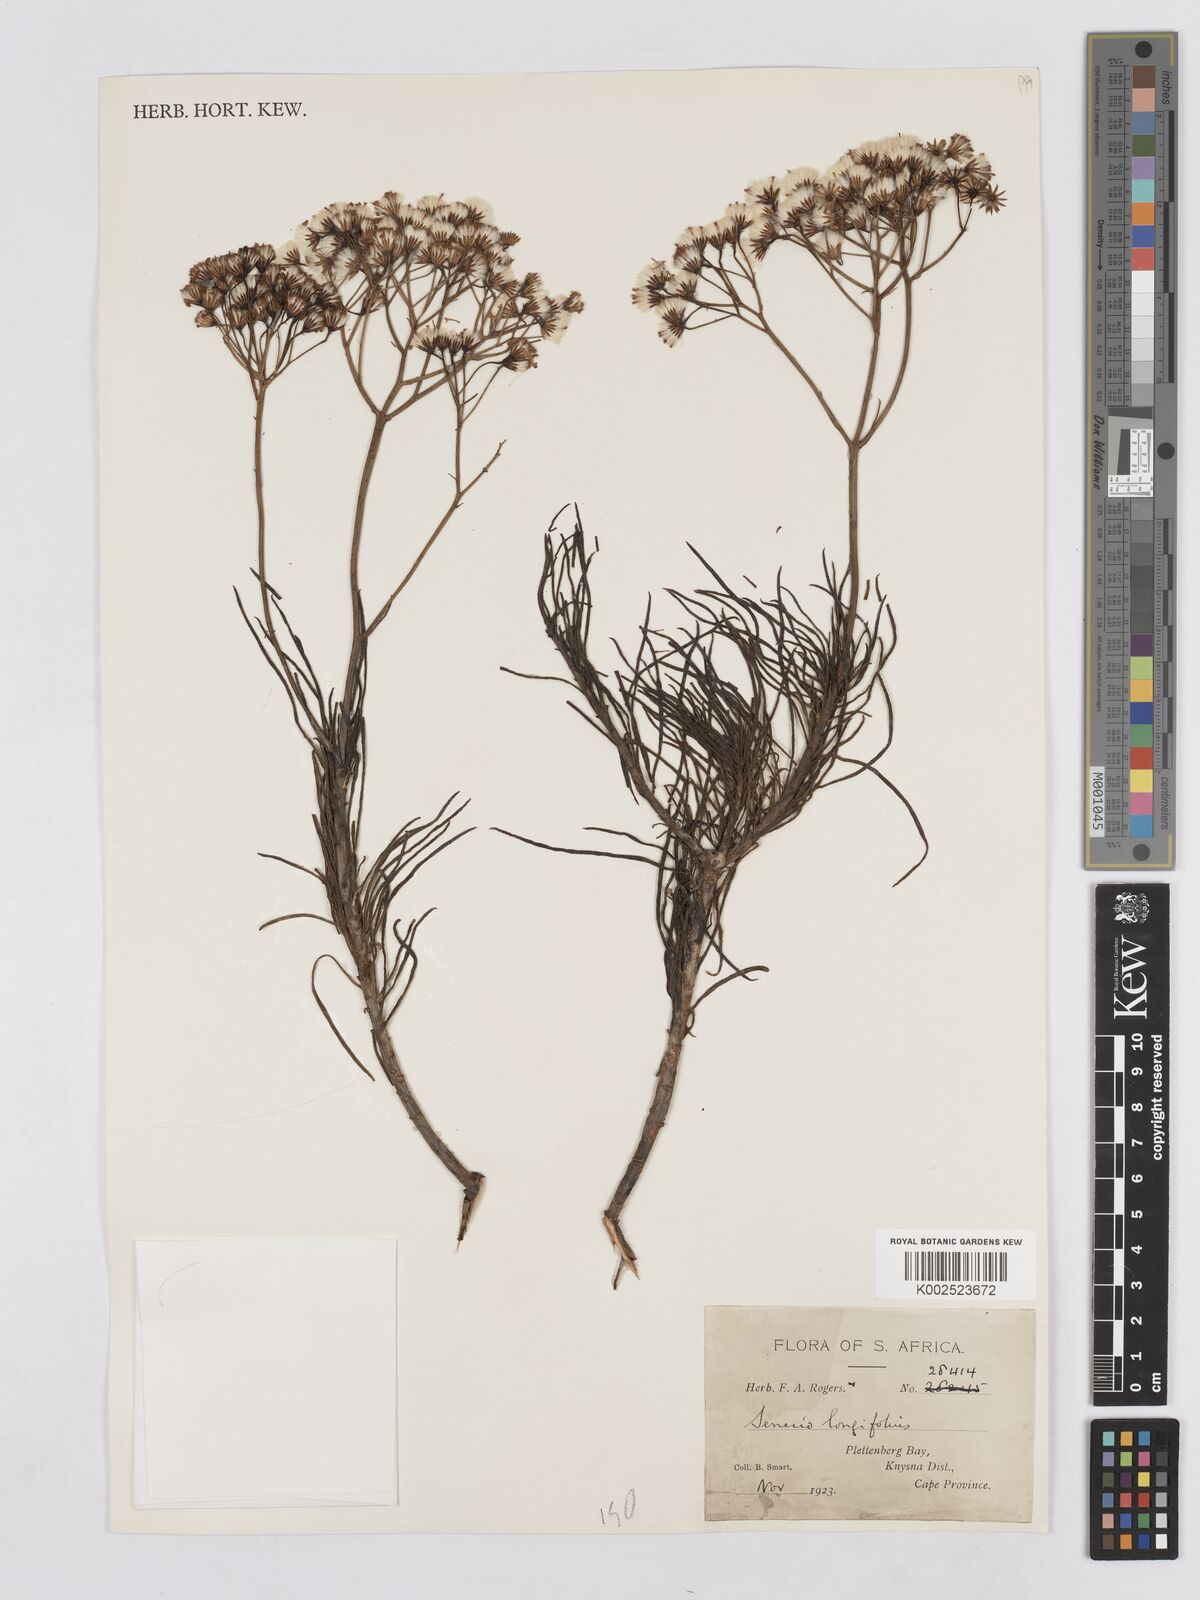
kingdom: Plantae
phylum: Tracheophyta
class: Magnoliopsida
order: Asterales
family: Asteraceae
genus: Senecio
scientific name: Senecio linifolius
